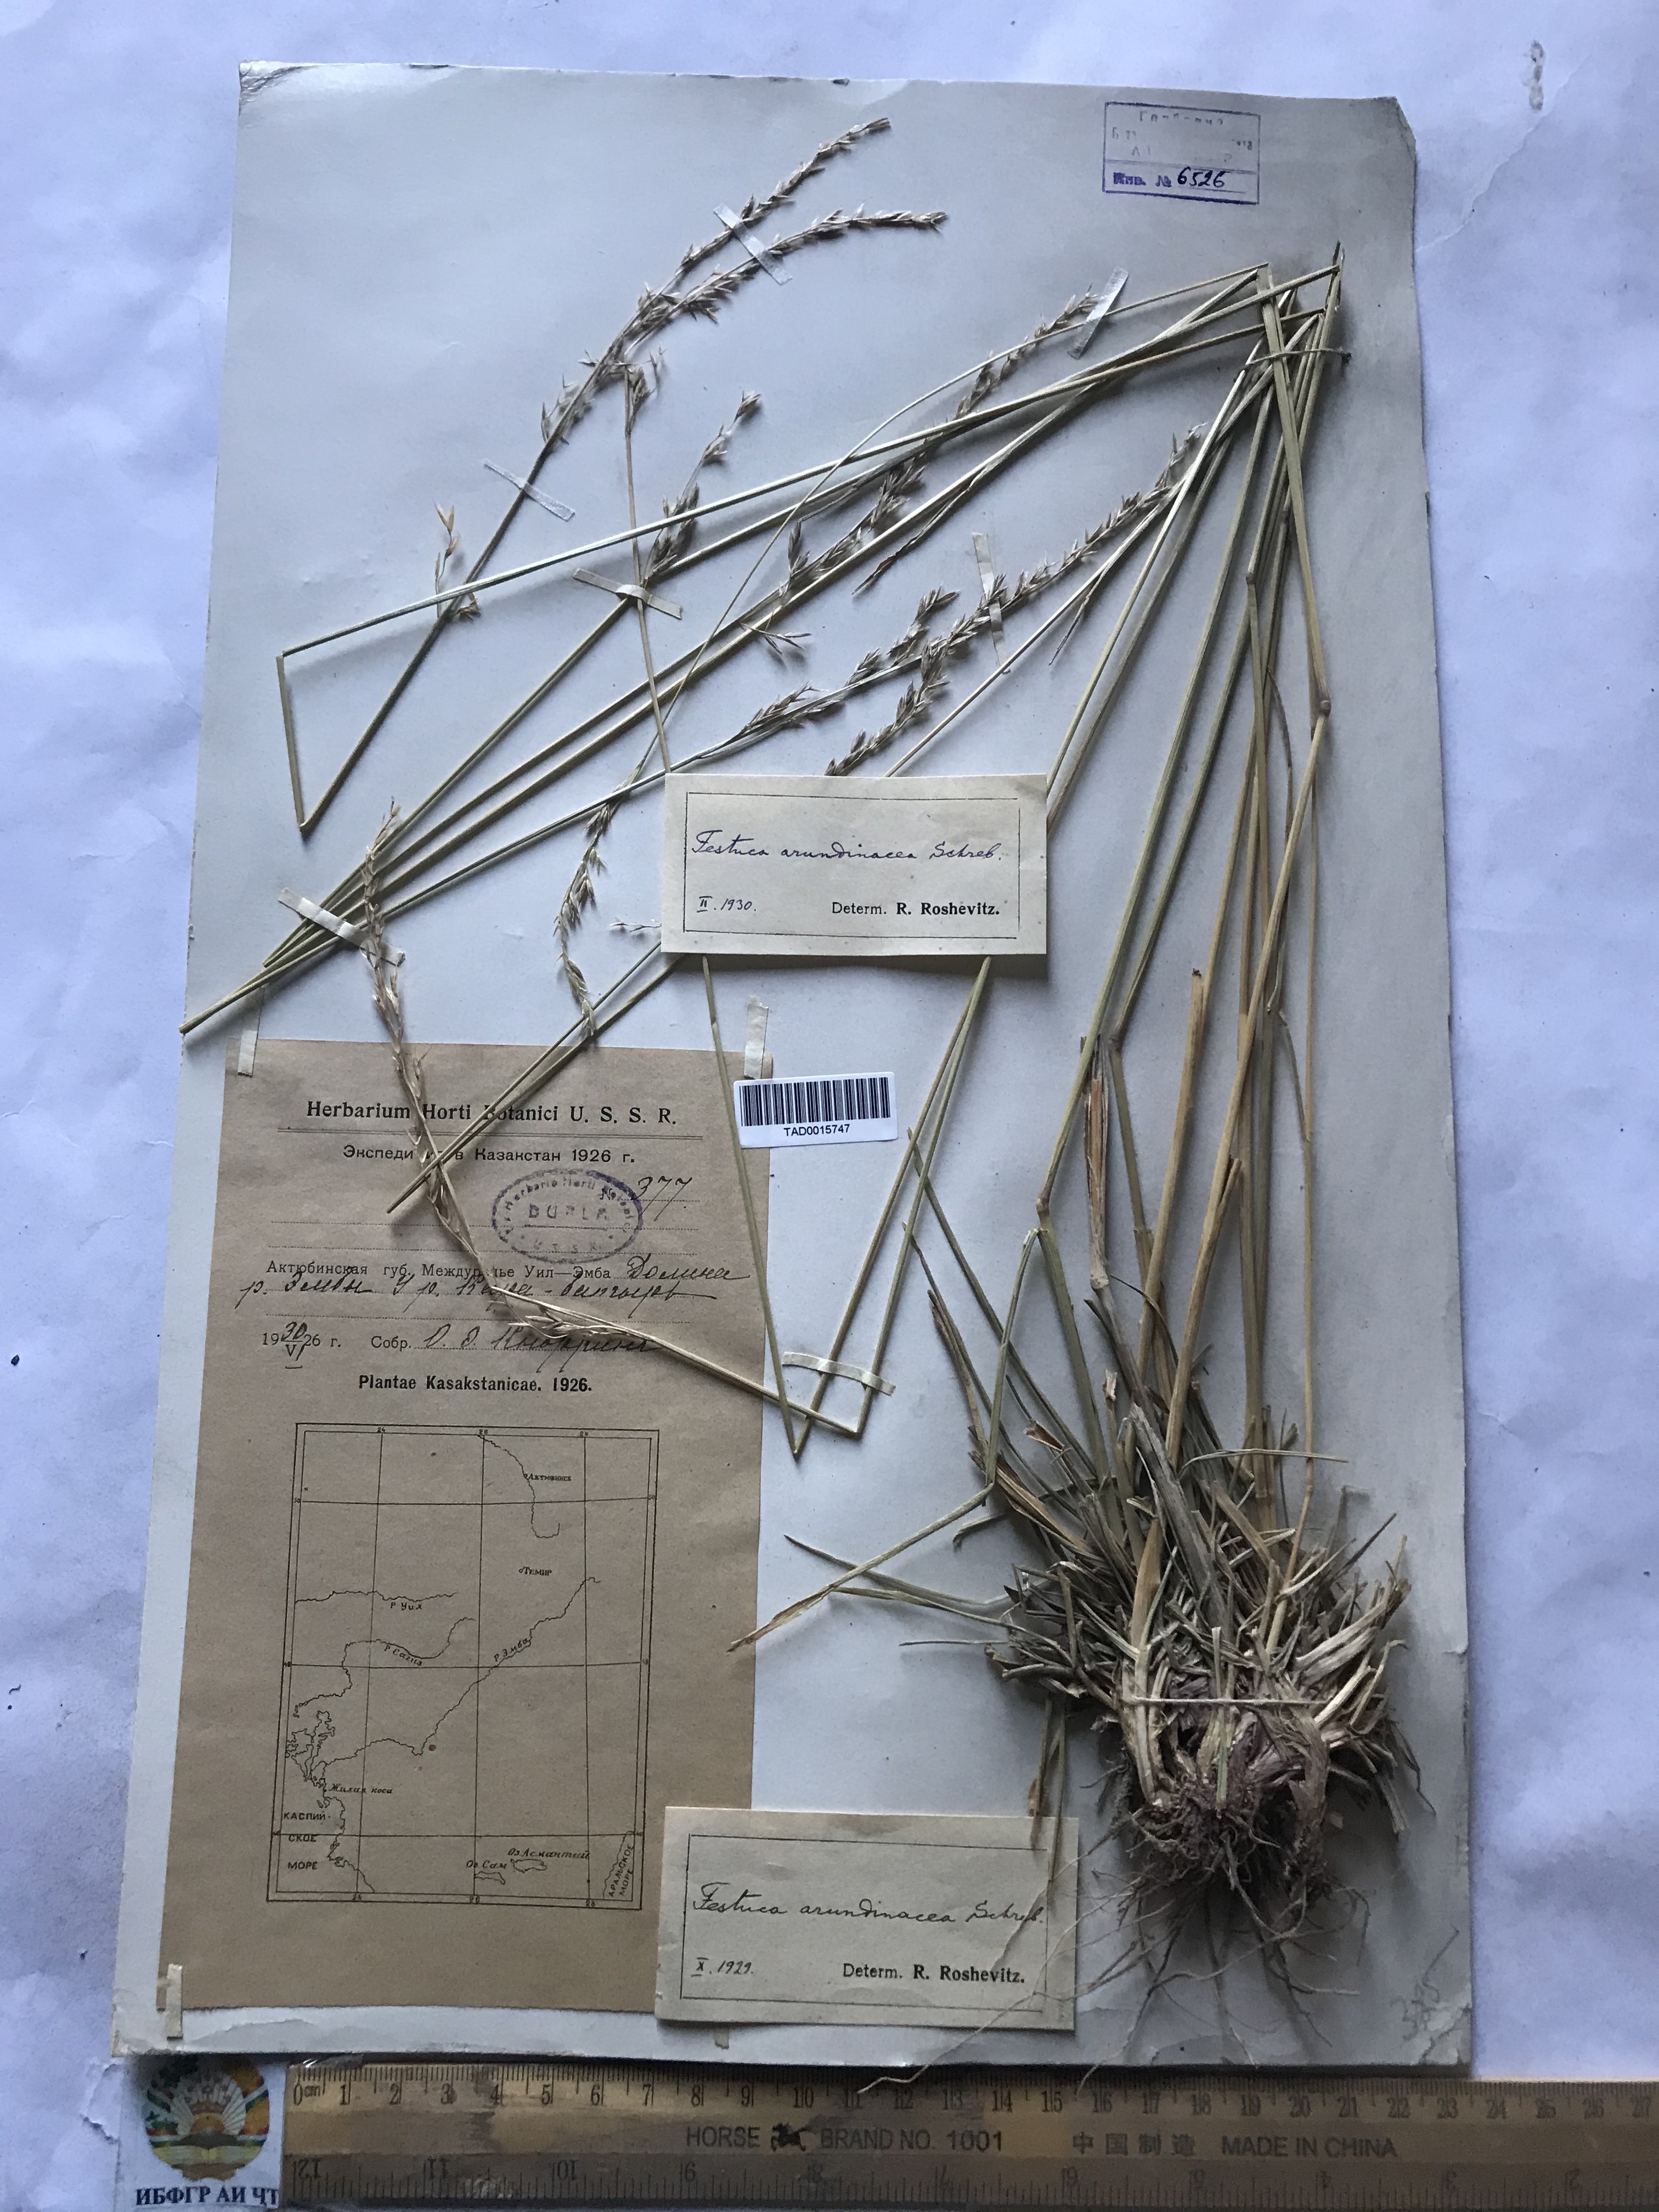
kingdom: Plantae
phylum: Tracheophyta
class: Liliopsida
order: Poales
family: Poaceae
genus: Lolium
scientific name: Lolium arundinaceum
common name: Reed fescue
